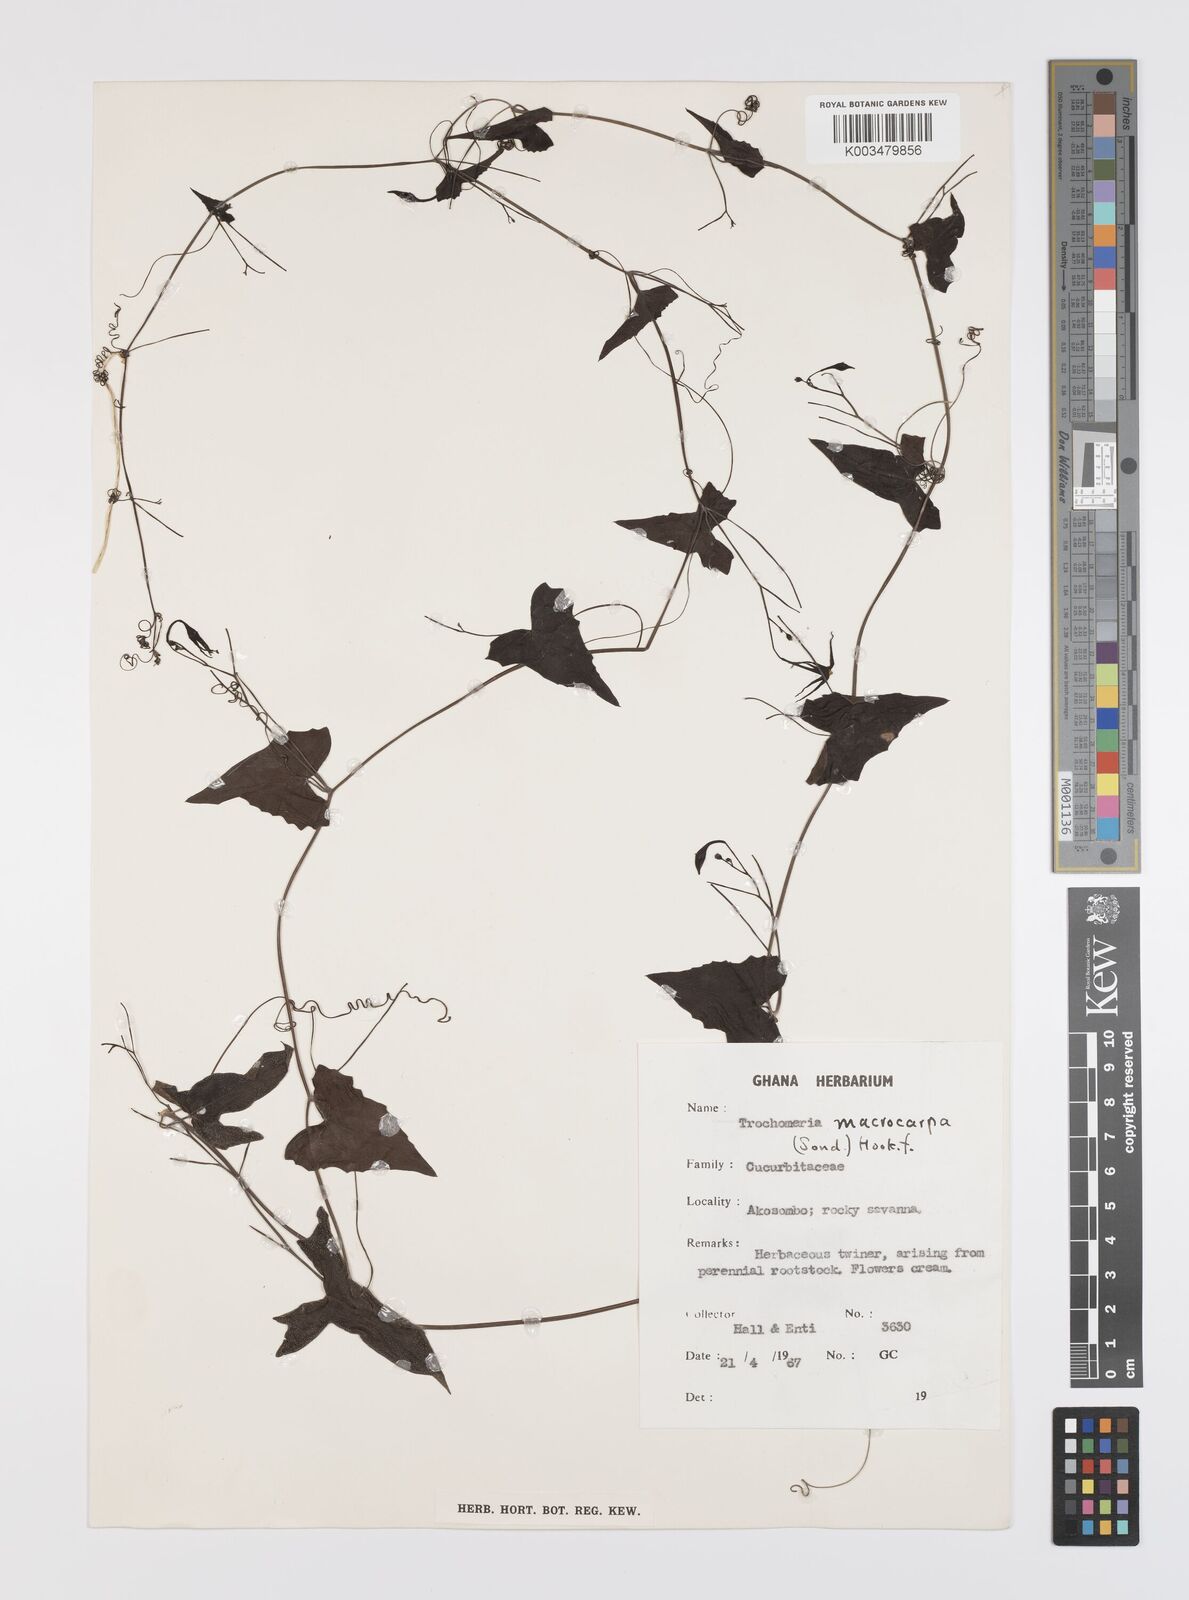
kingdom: Plantae
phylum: Tracheophyta
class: Magnoliopsida
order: Cucurbitales
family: Cucurbitaceae
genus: Trochomeria
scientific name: Trochomeria macrocarpa
